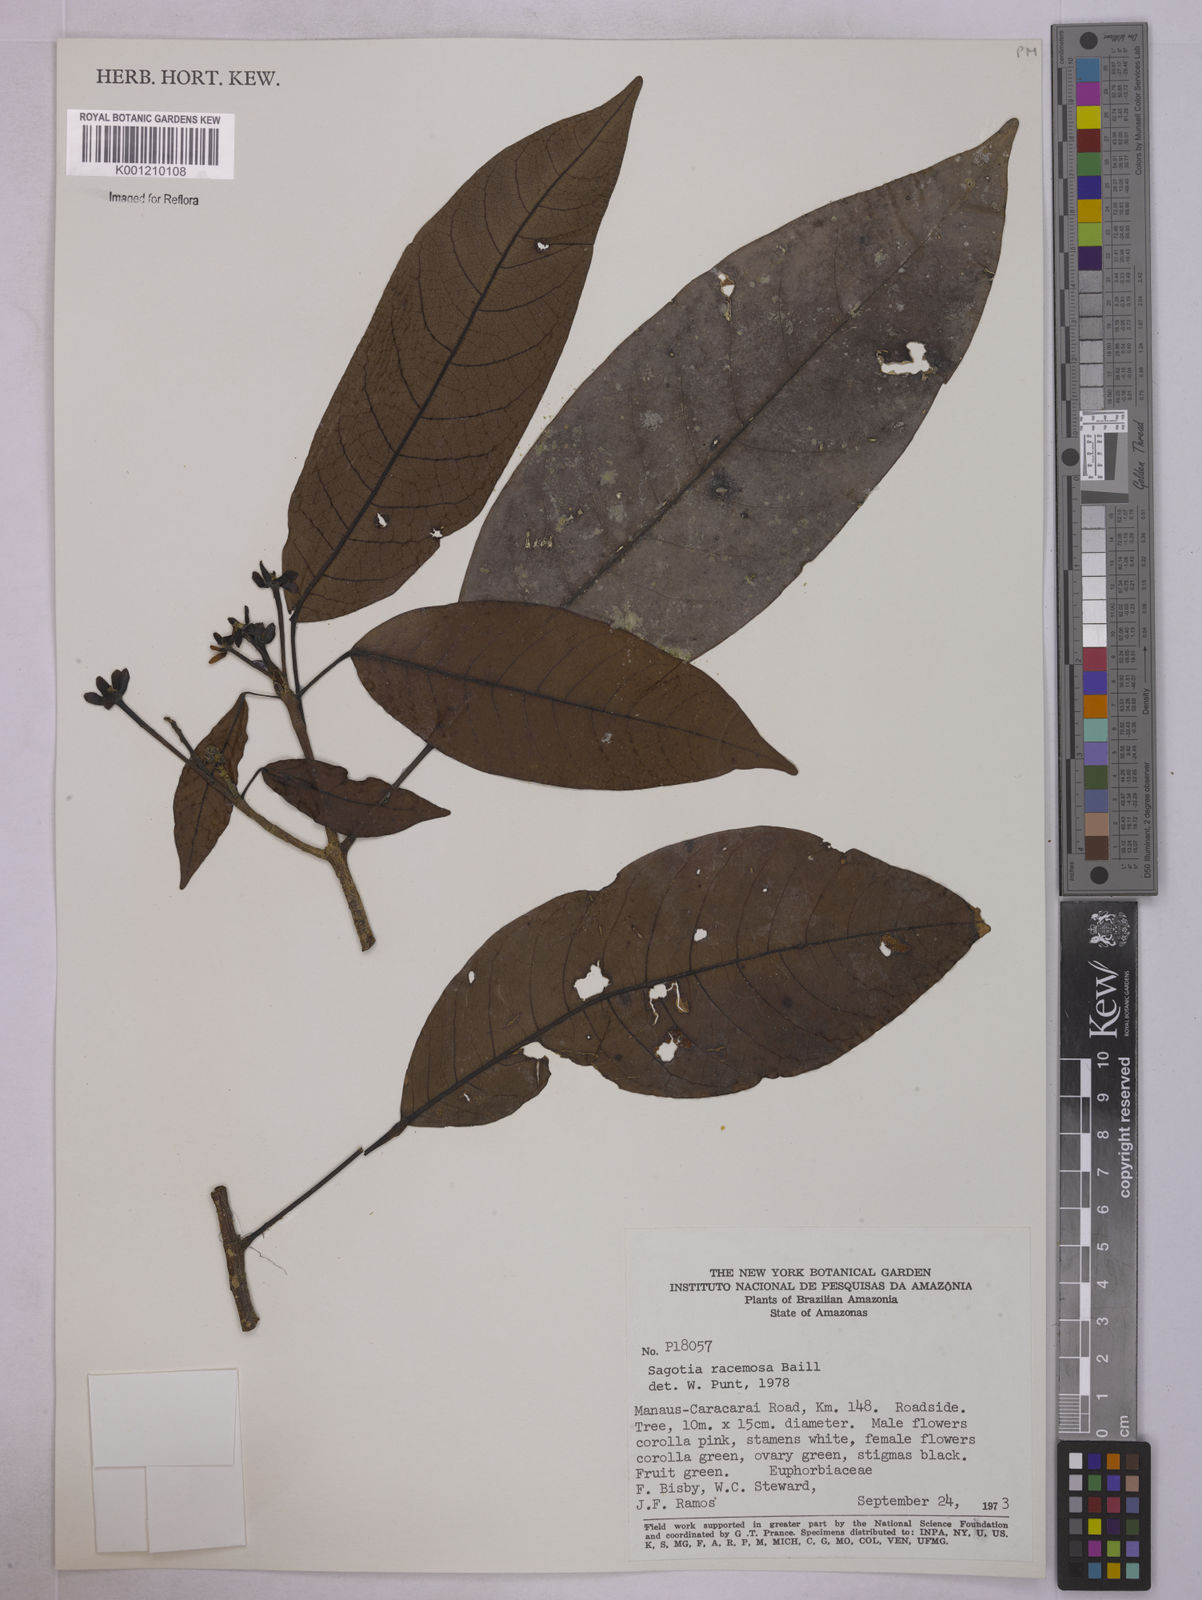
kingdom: Plantae
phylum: Tracheophyta
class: Magnoliopsida
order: Malpighiales
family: Euphorbiaceae
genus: Sagotia
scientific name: Sagotia racemosa
